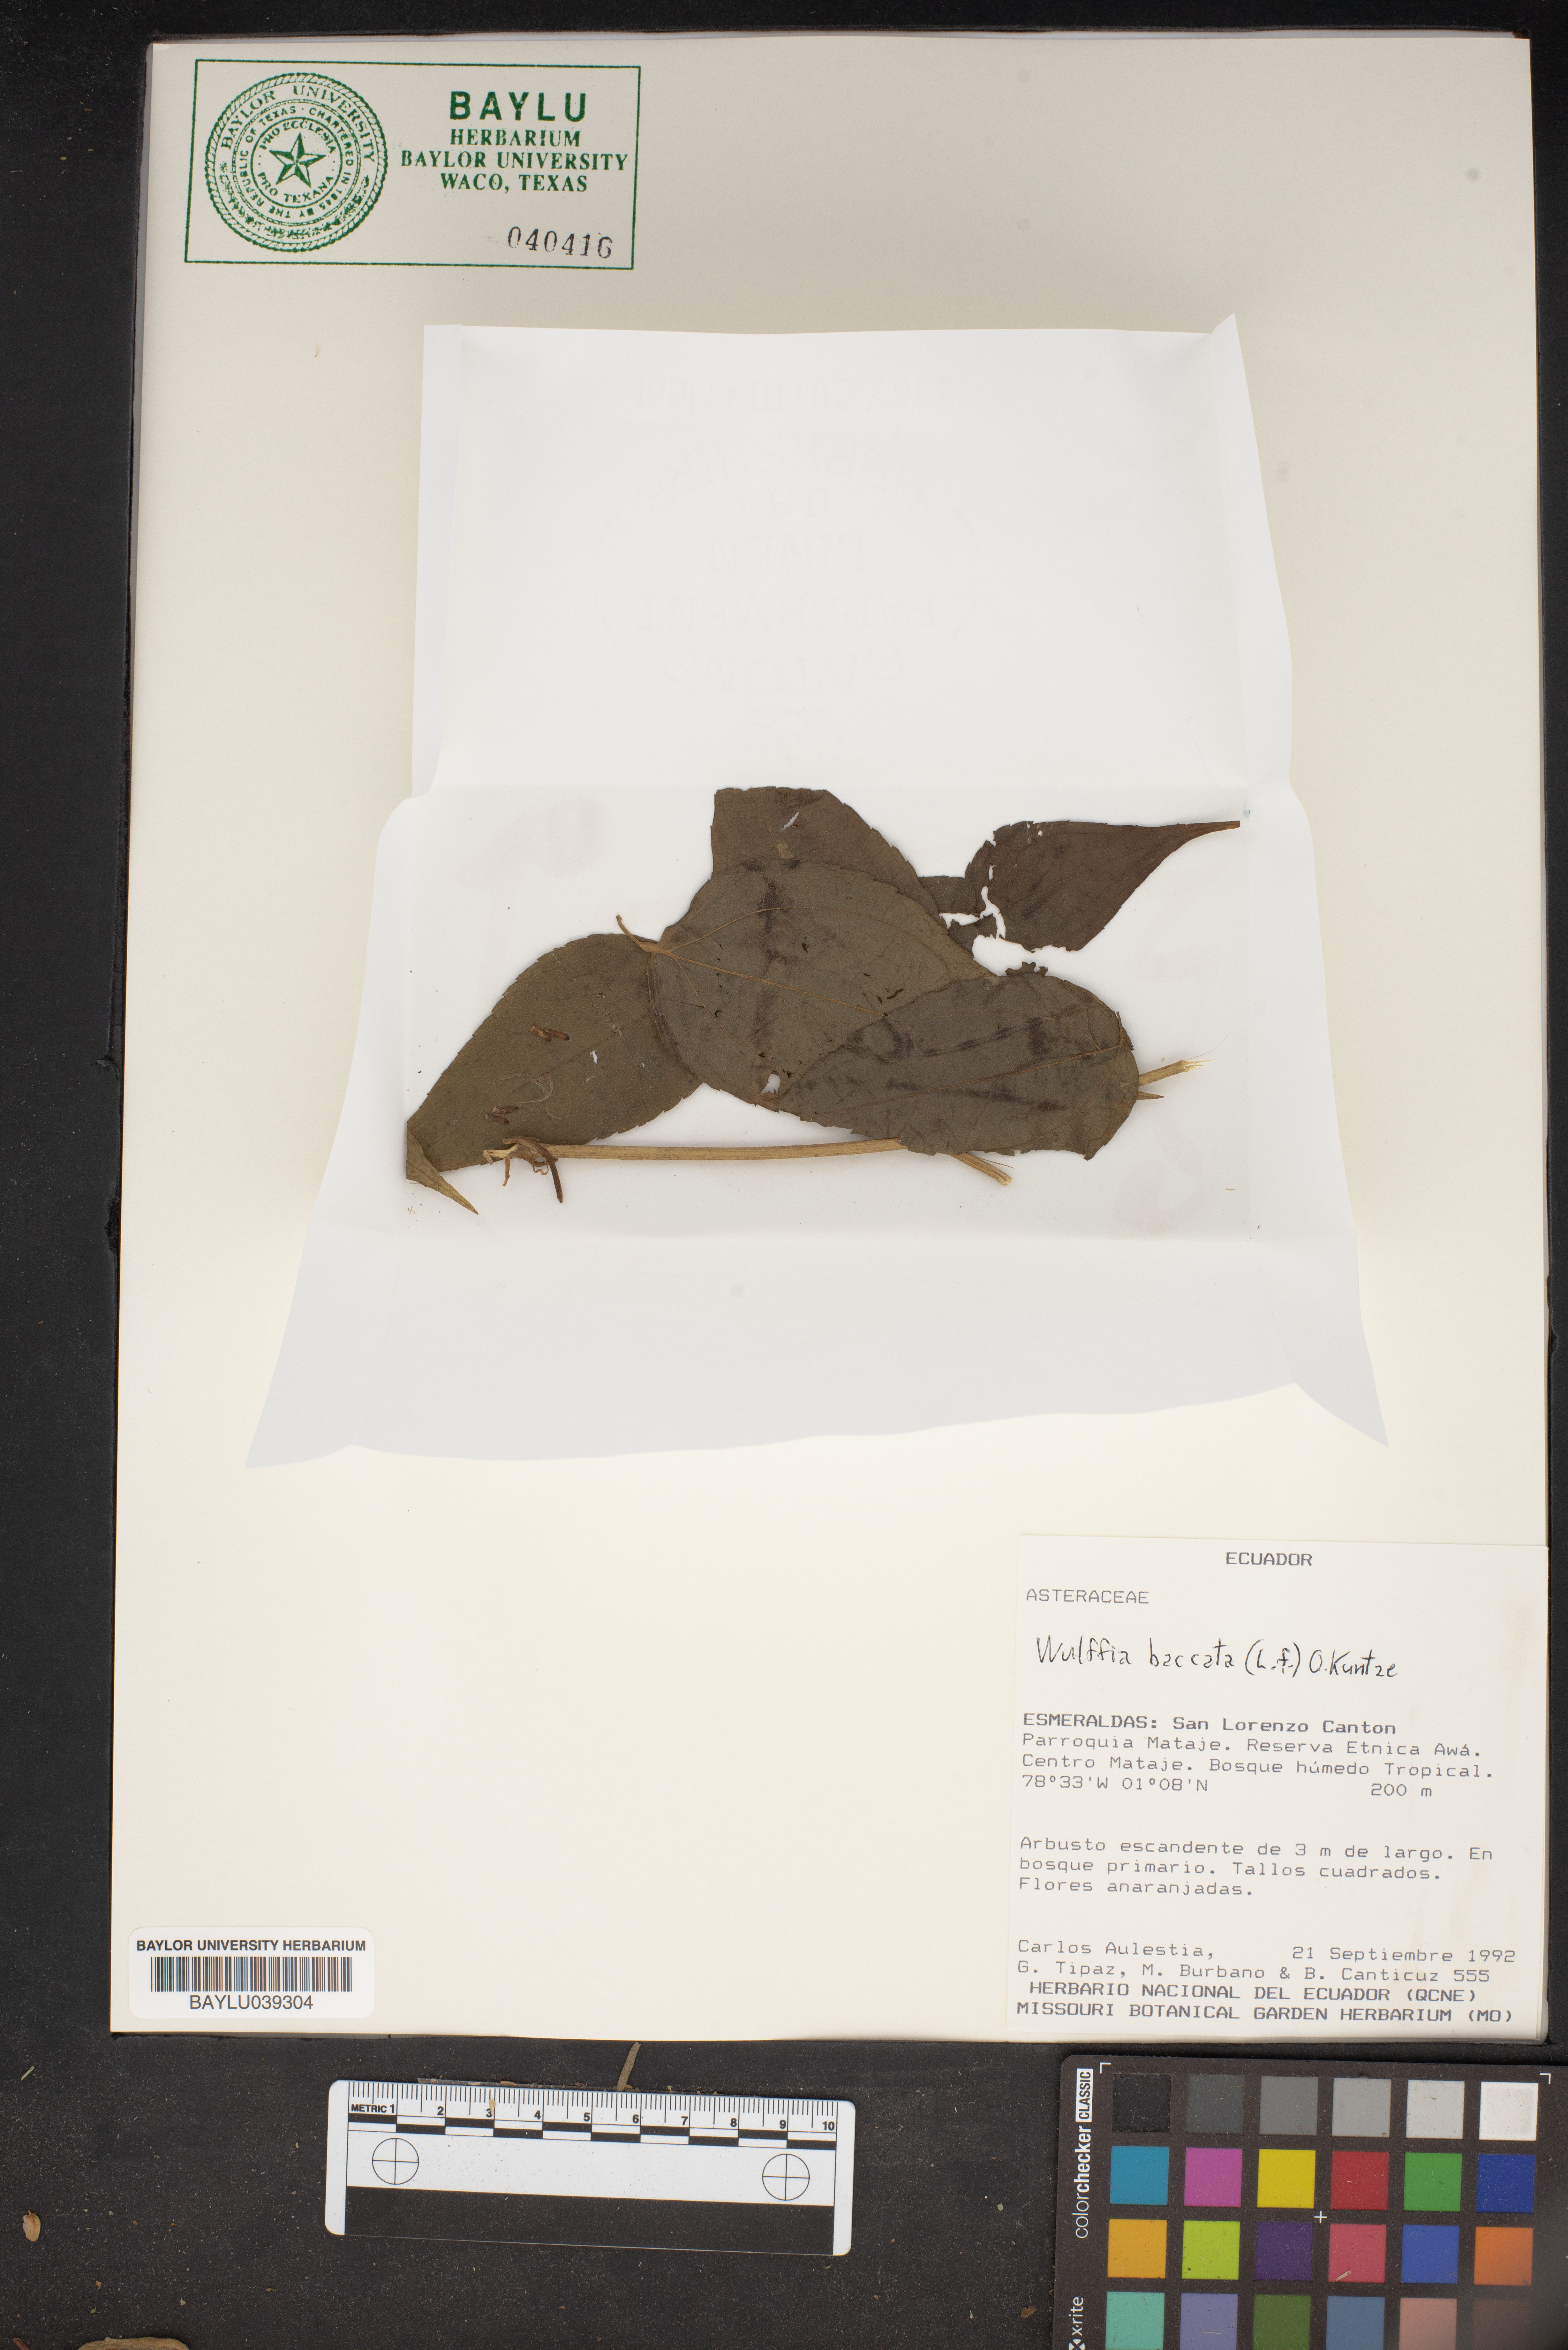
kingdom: Plantae
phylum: Tracheophyta
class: Magnoliopsida
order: Asterales
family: Asteraceae
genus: Tilesia
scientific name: Tilesia baccata
